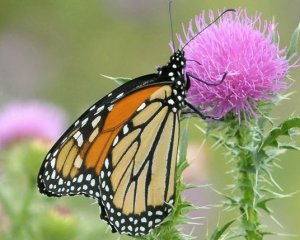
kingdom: Animalia
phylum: Arthropoda
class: Insecta
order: Lepidoptera
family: Nymphalidae
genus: Danaus
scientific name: Danaus plexippus
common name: Monarch
